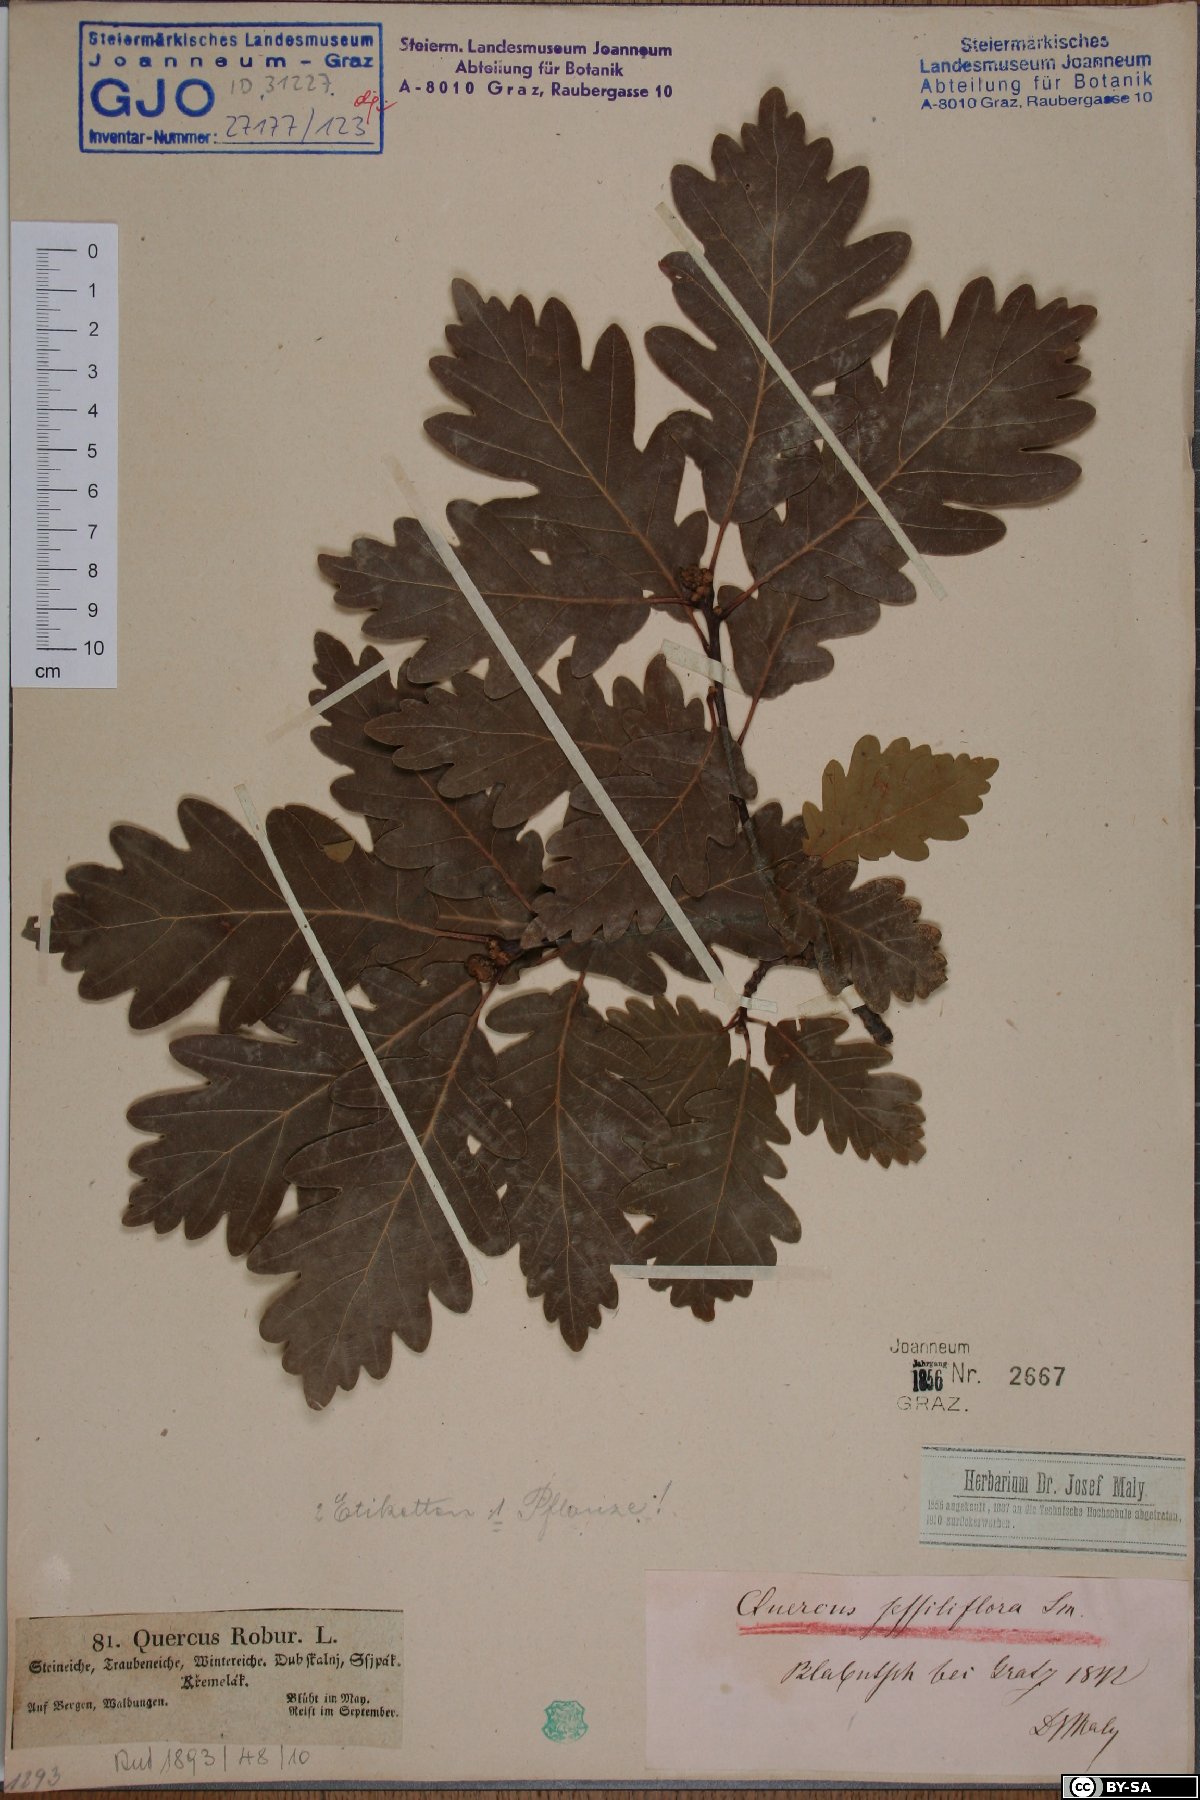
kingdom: Plantae
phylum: Tracheophyta
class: Magnoliopsida
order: Fagales
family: Fagaceae
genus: Quercus
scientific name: Quercus petraea
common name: Sessile oak
